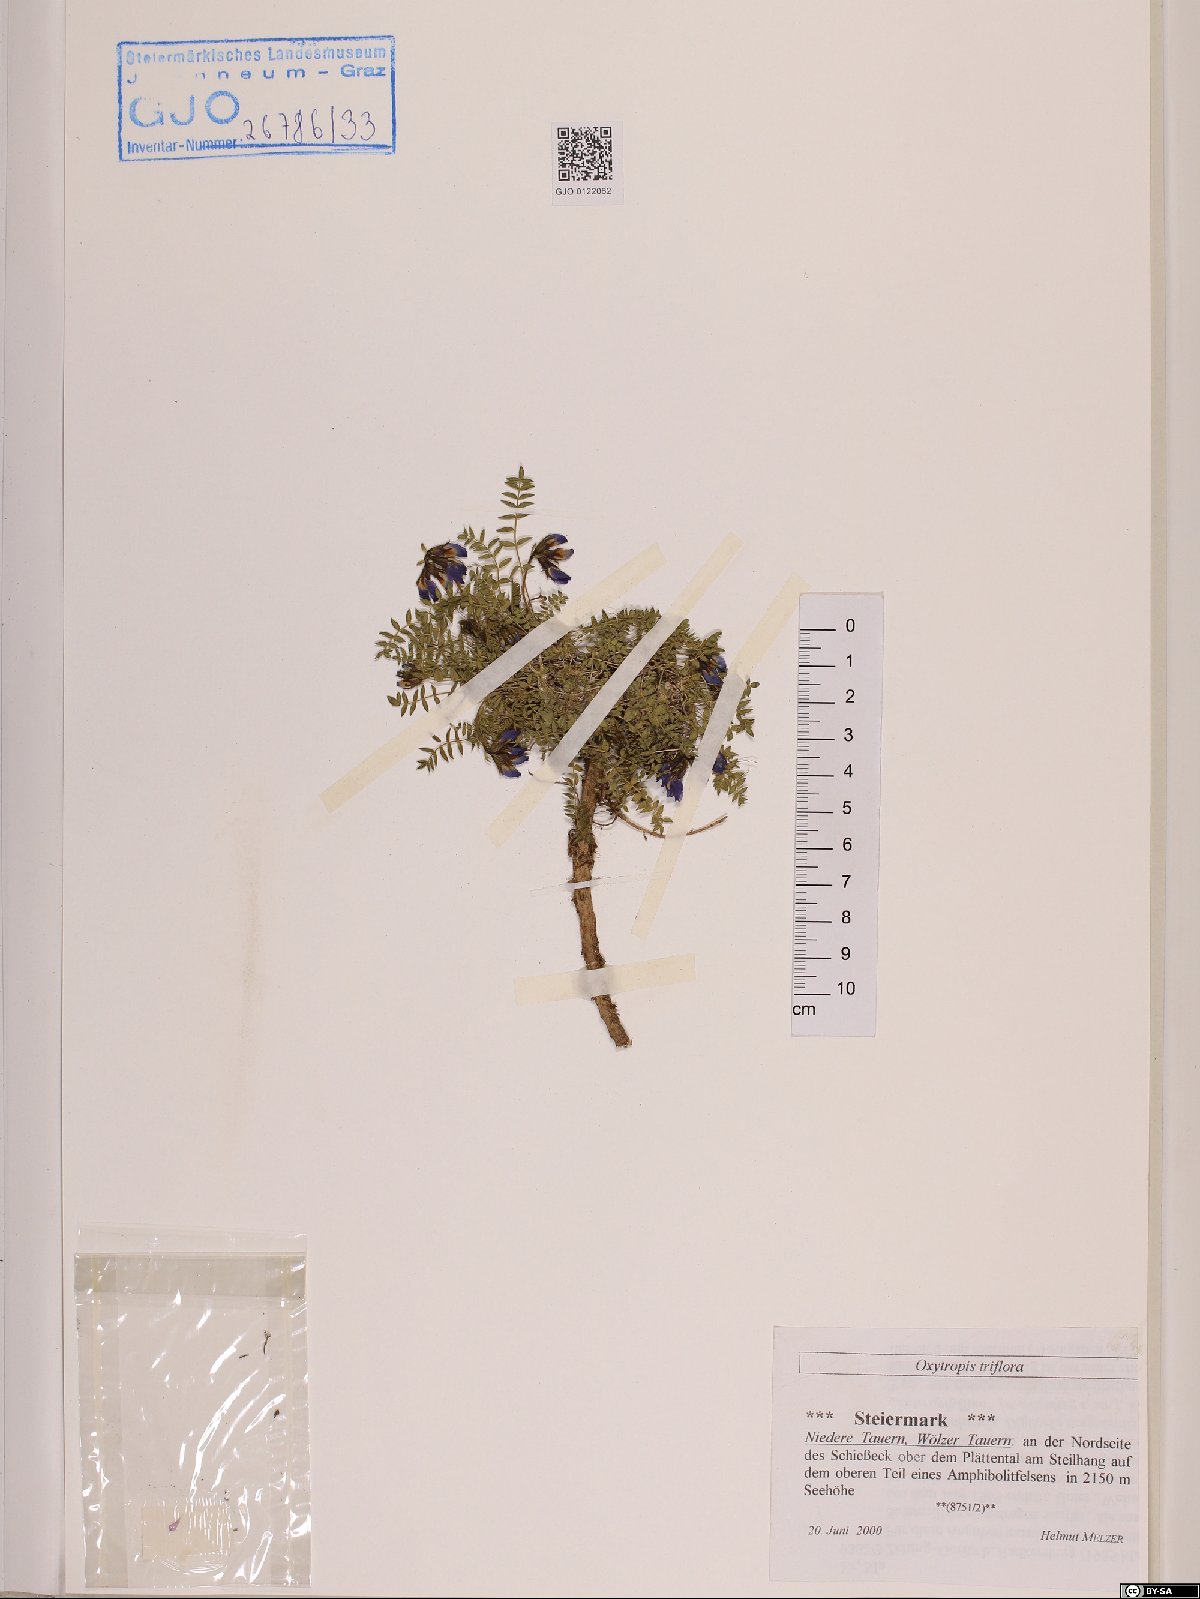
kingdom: Plantae
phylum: Tracheophyta
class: Magnoliopsida
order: Fabales
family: Fabaceae
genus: Oxytropis
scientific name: Oxytropis triflora
